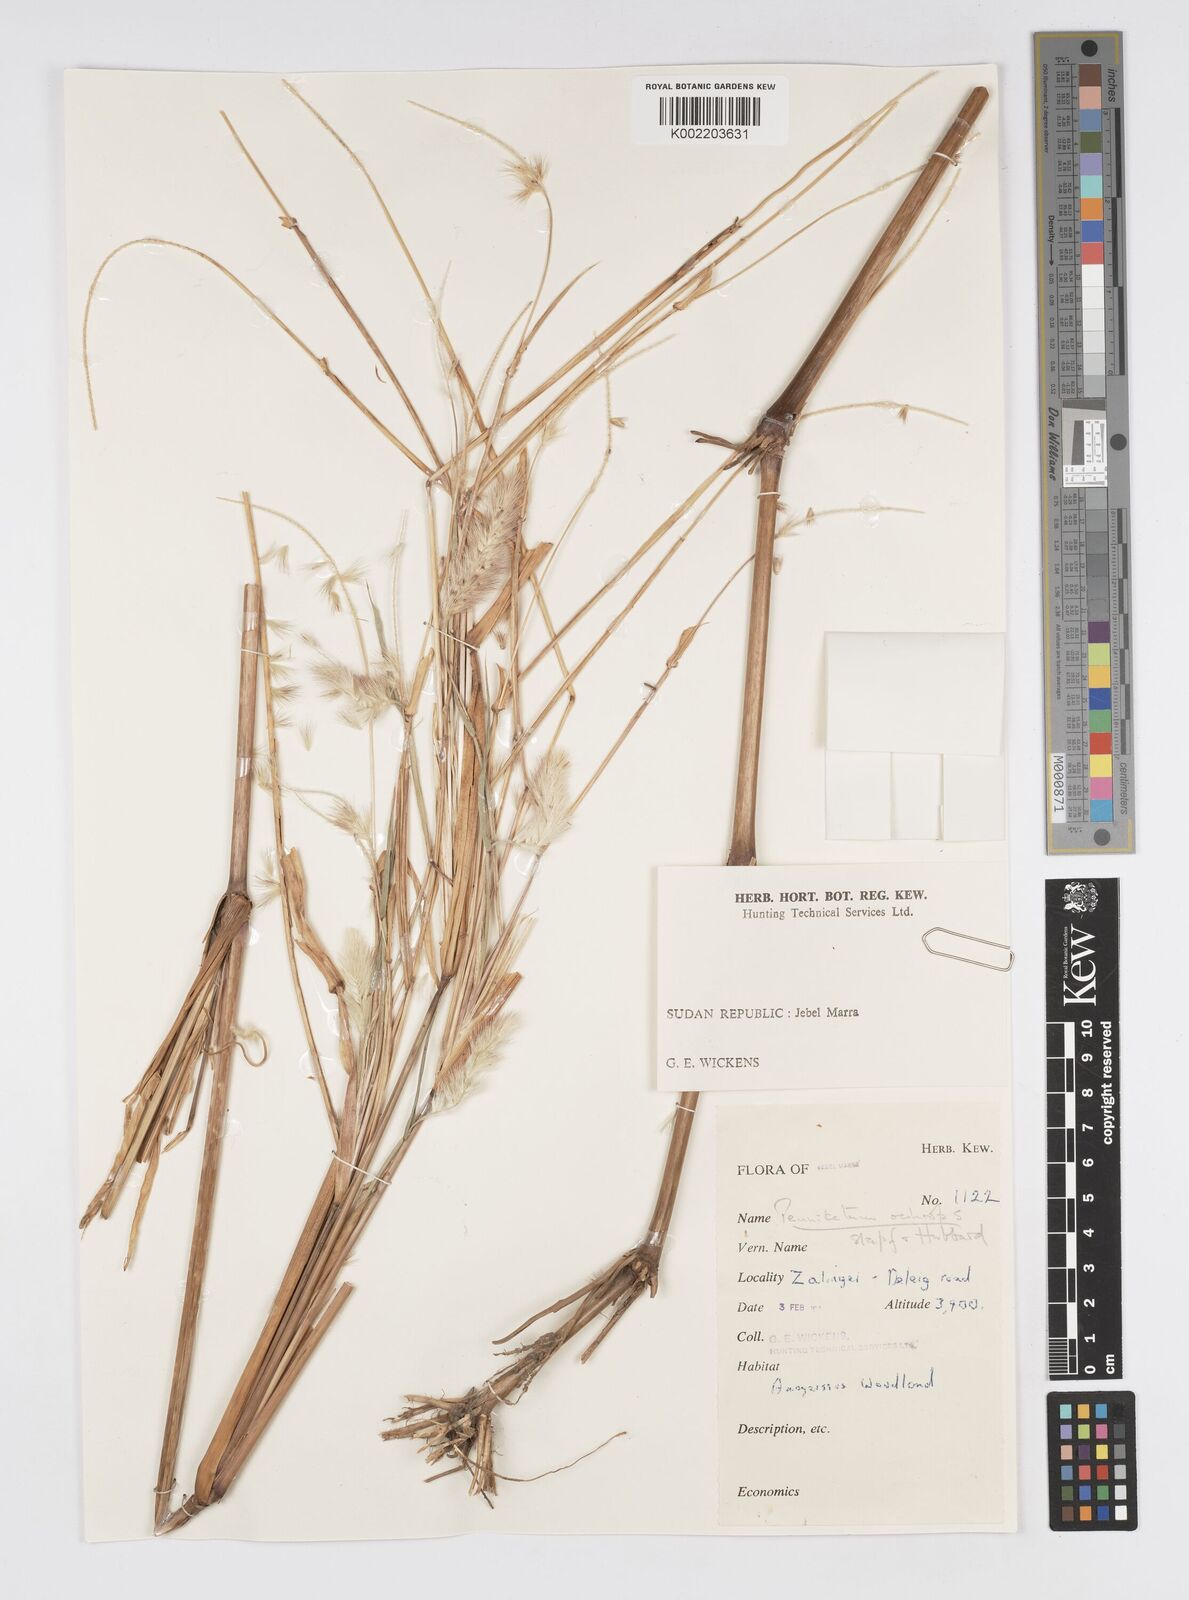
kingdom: Plantae
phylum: Tracheophyta
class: Liliopsida
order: Poales
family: Poaceae
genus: Cenchrus
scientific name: Cenchrus violaceus
